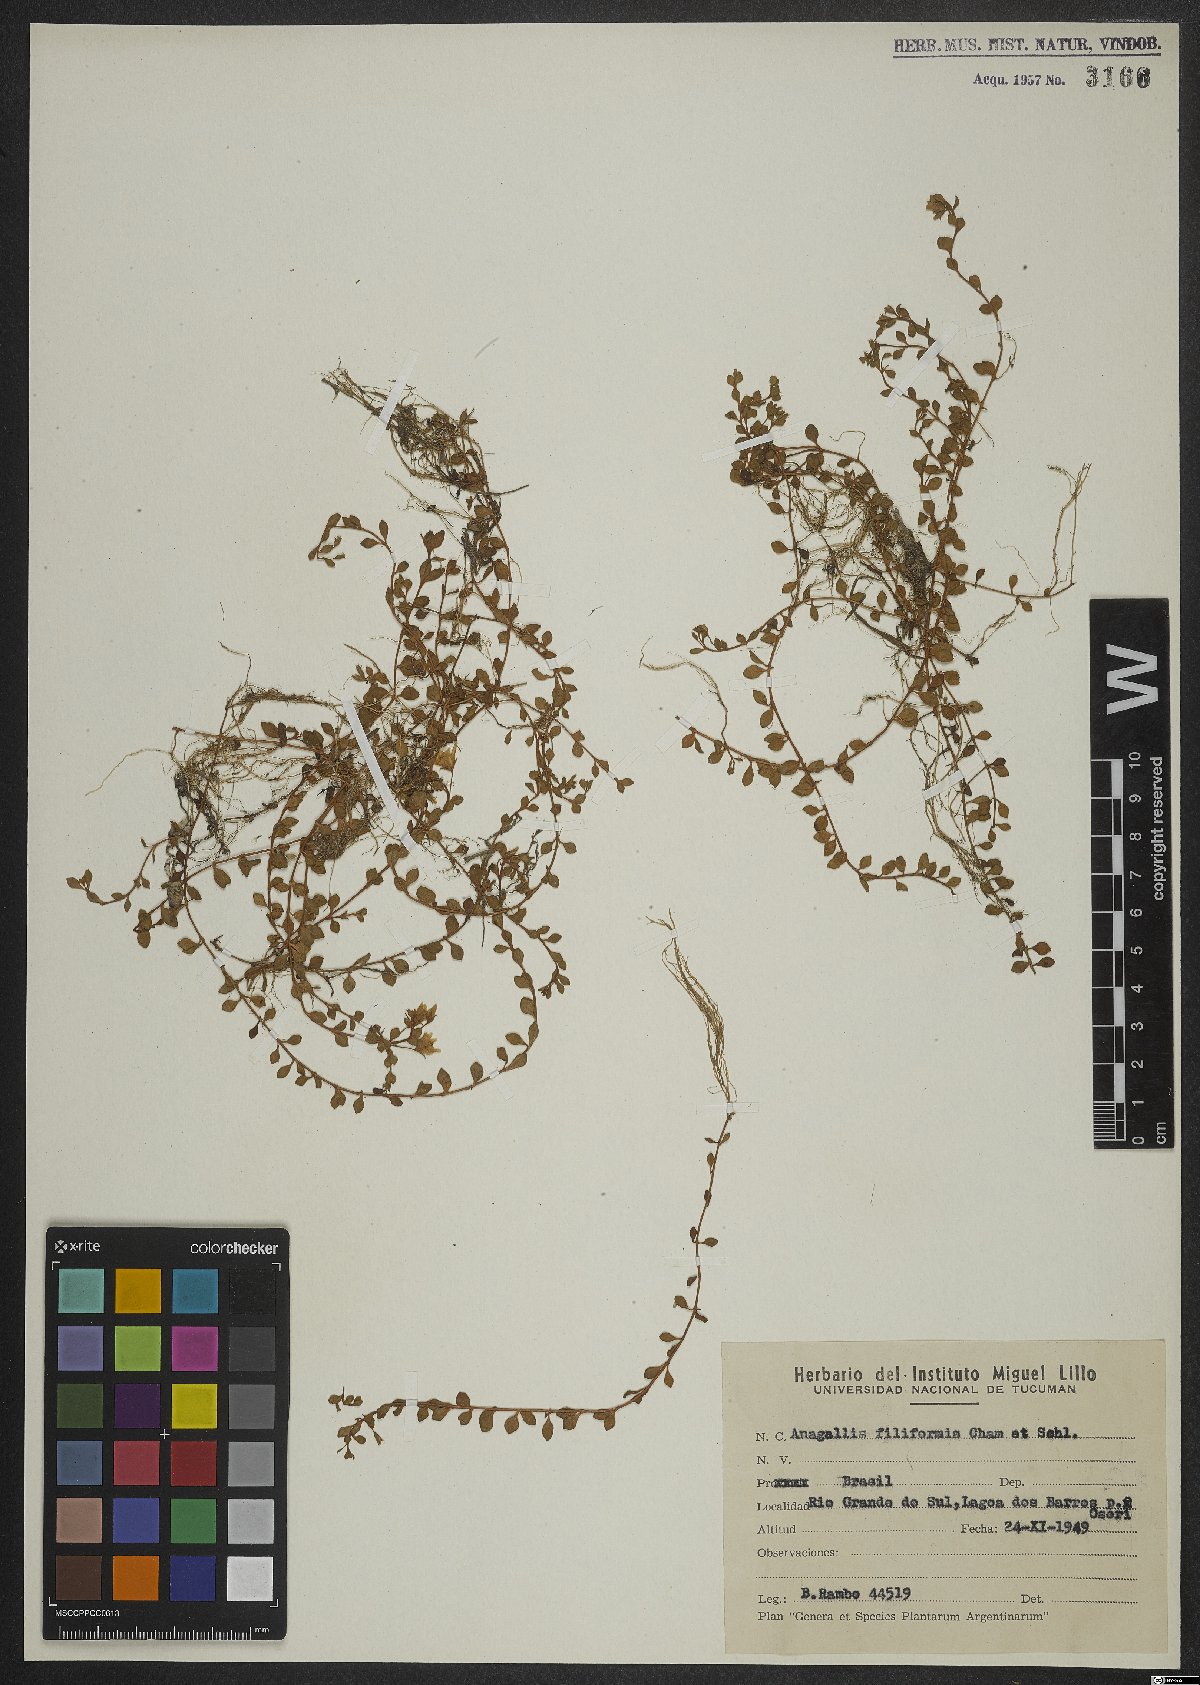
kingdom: Plantae
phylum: Tracheophyta
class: Magnoliopsida
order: Ericales
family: Primulaceae
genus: Lysimachia
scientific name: Lysimachia filiformis
